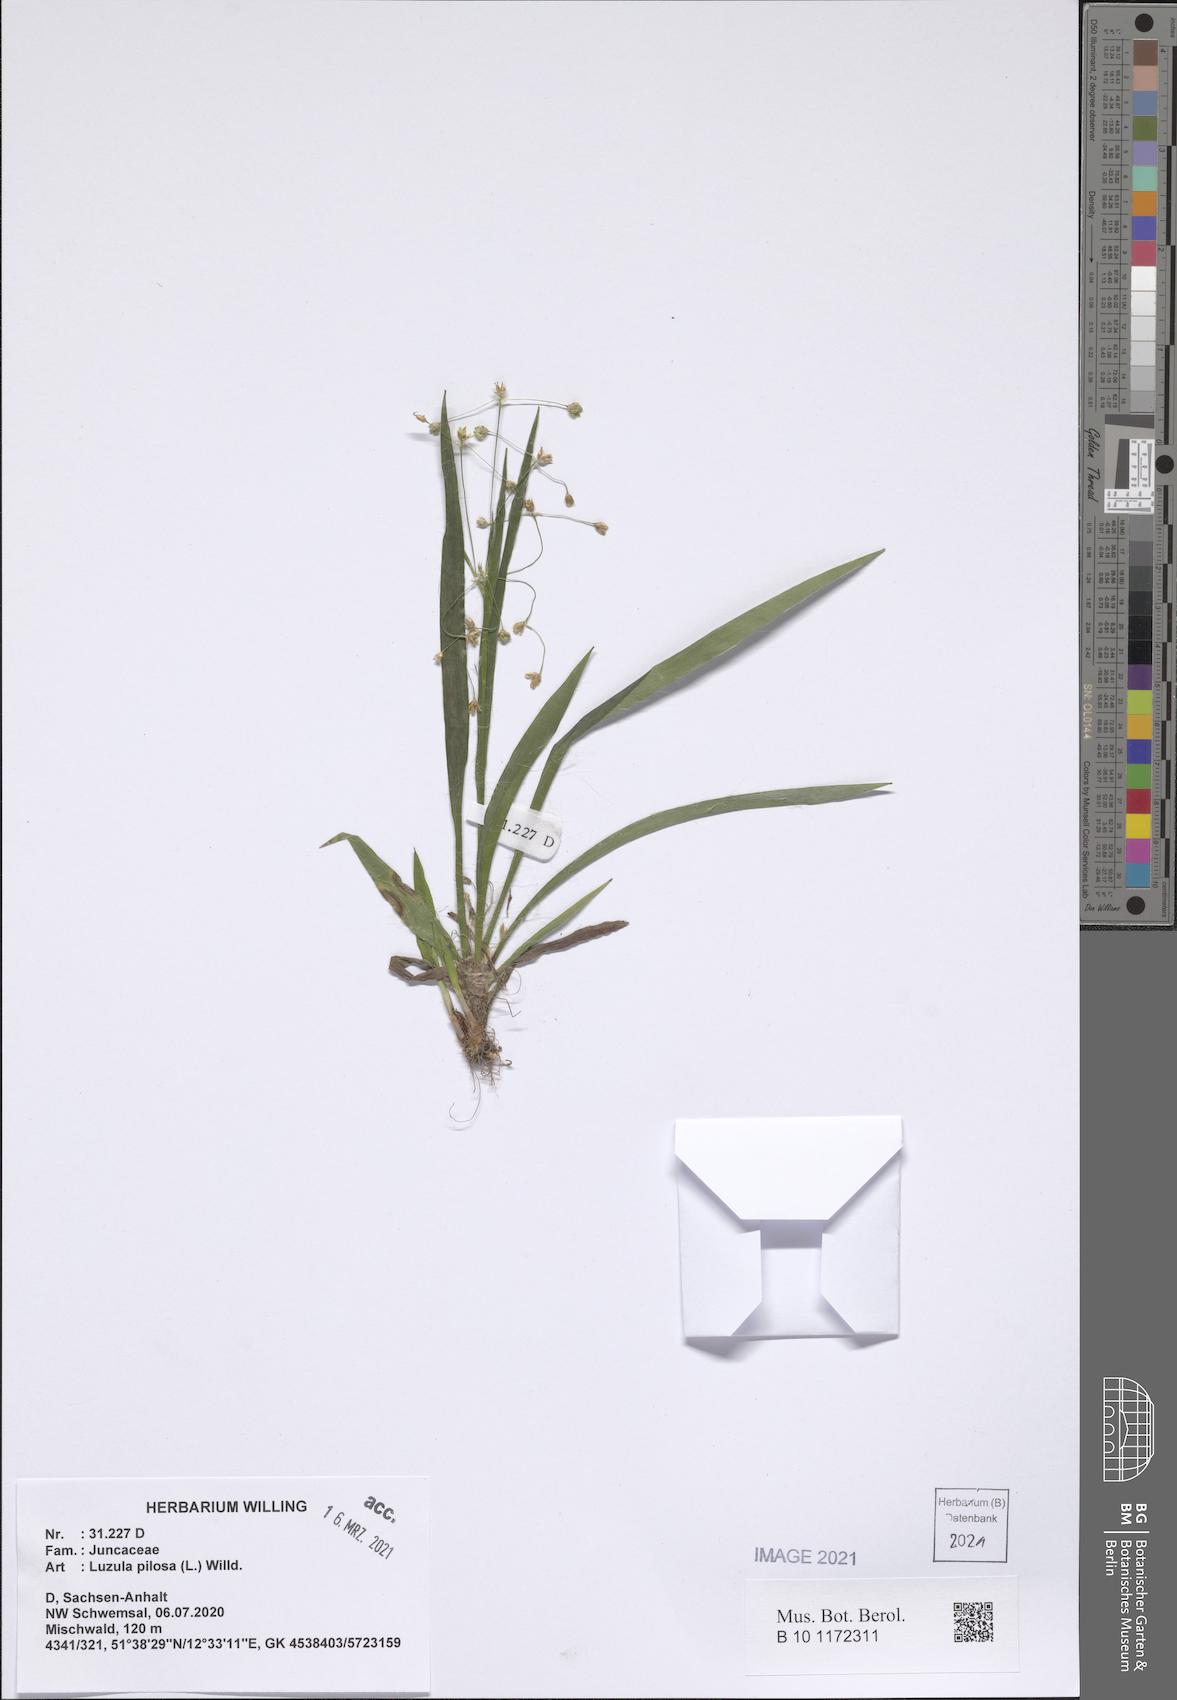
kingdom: Plantae
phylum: Tracheophyta
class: Liliopsida
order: Poales
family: Juncaceae
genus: Luzula
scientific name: Luzula pilosa
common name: Hairy wood-rush
